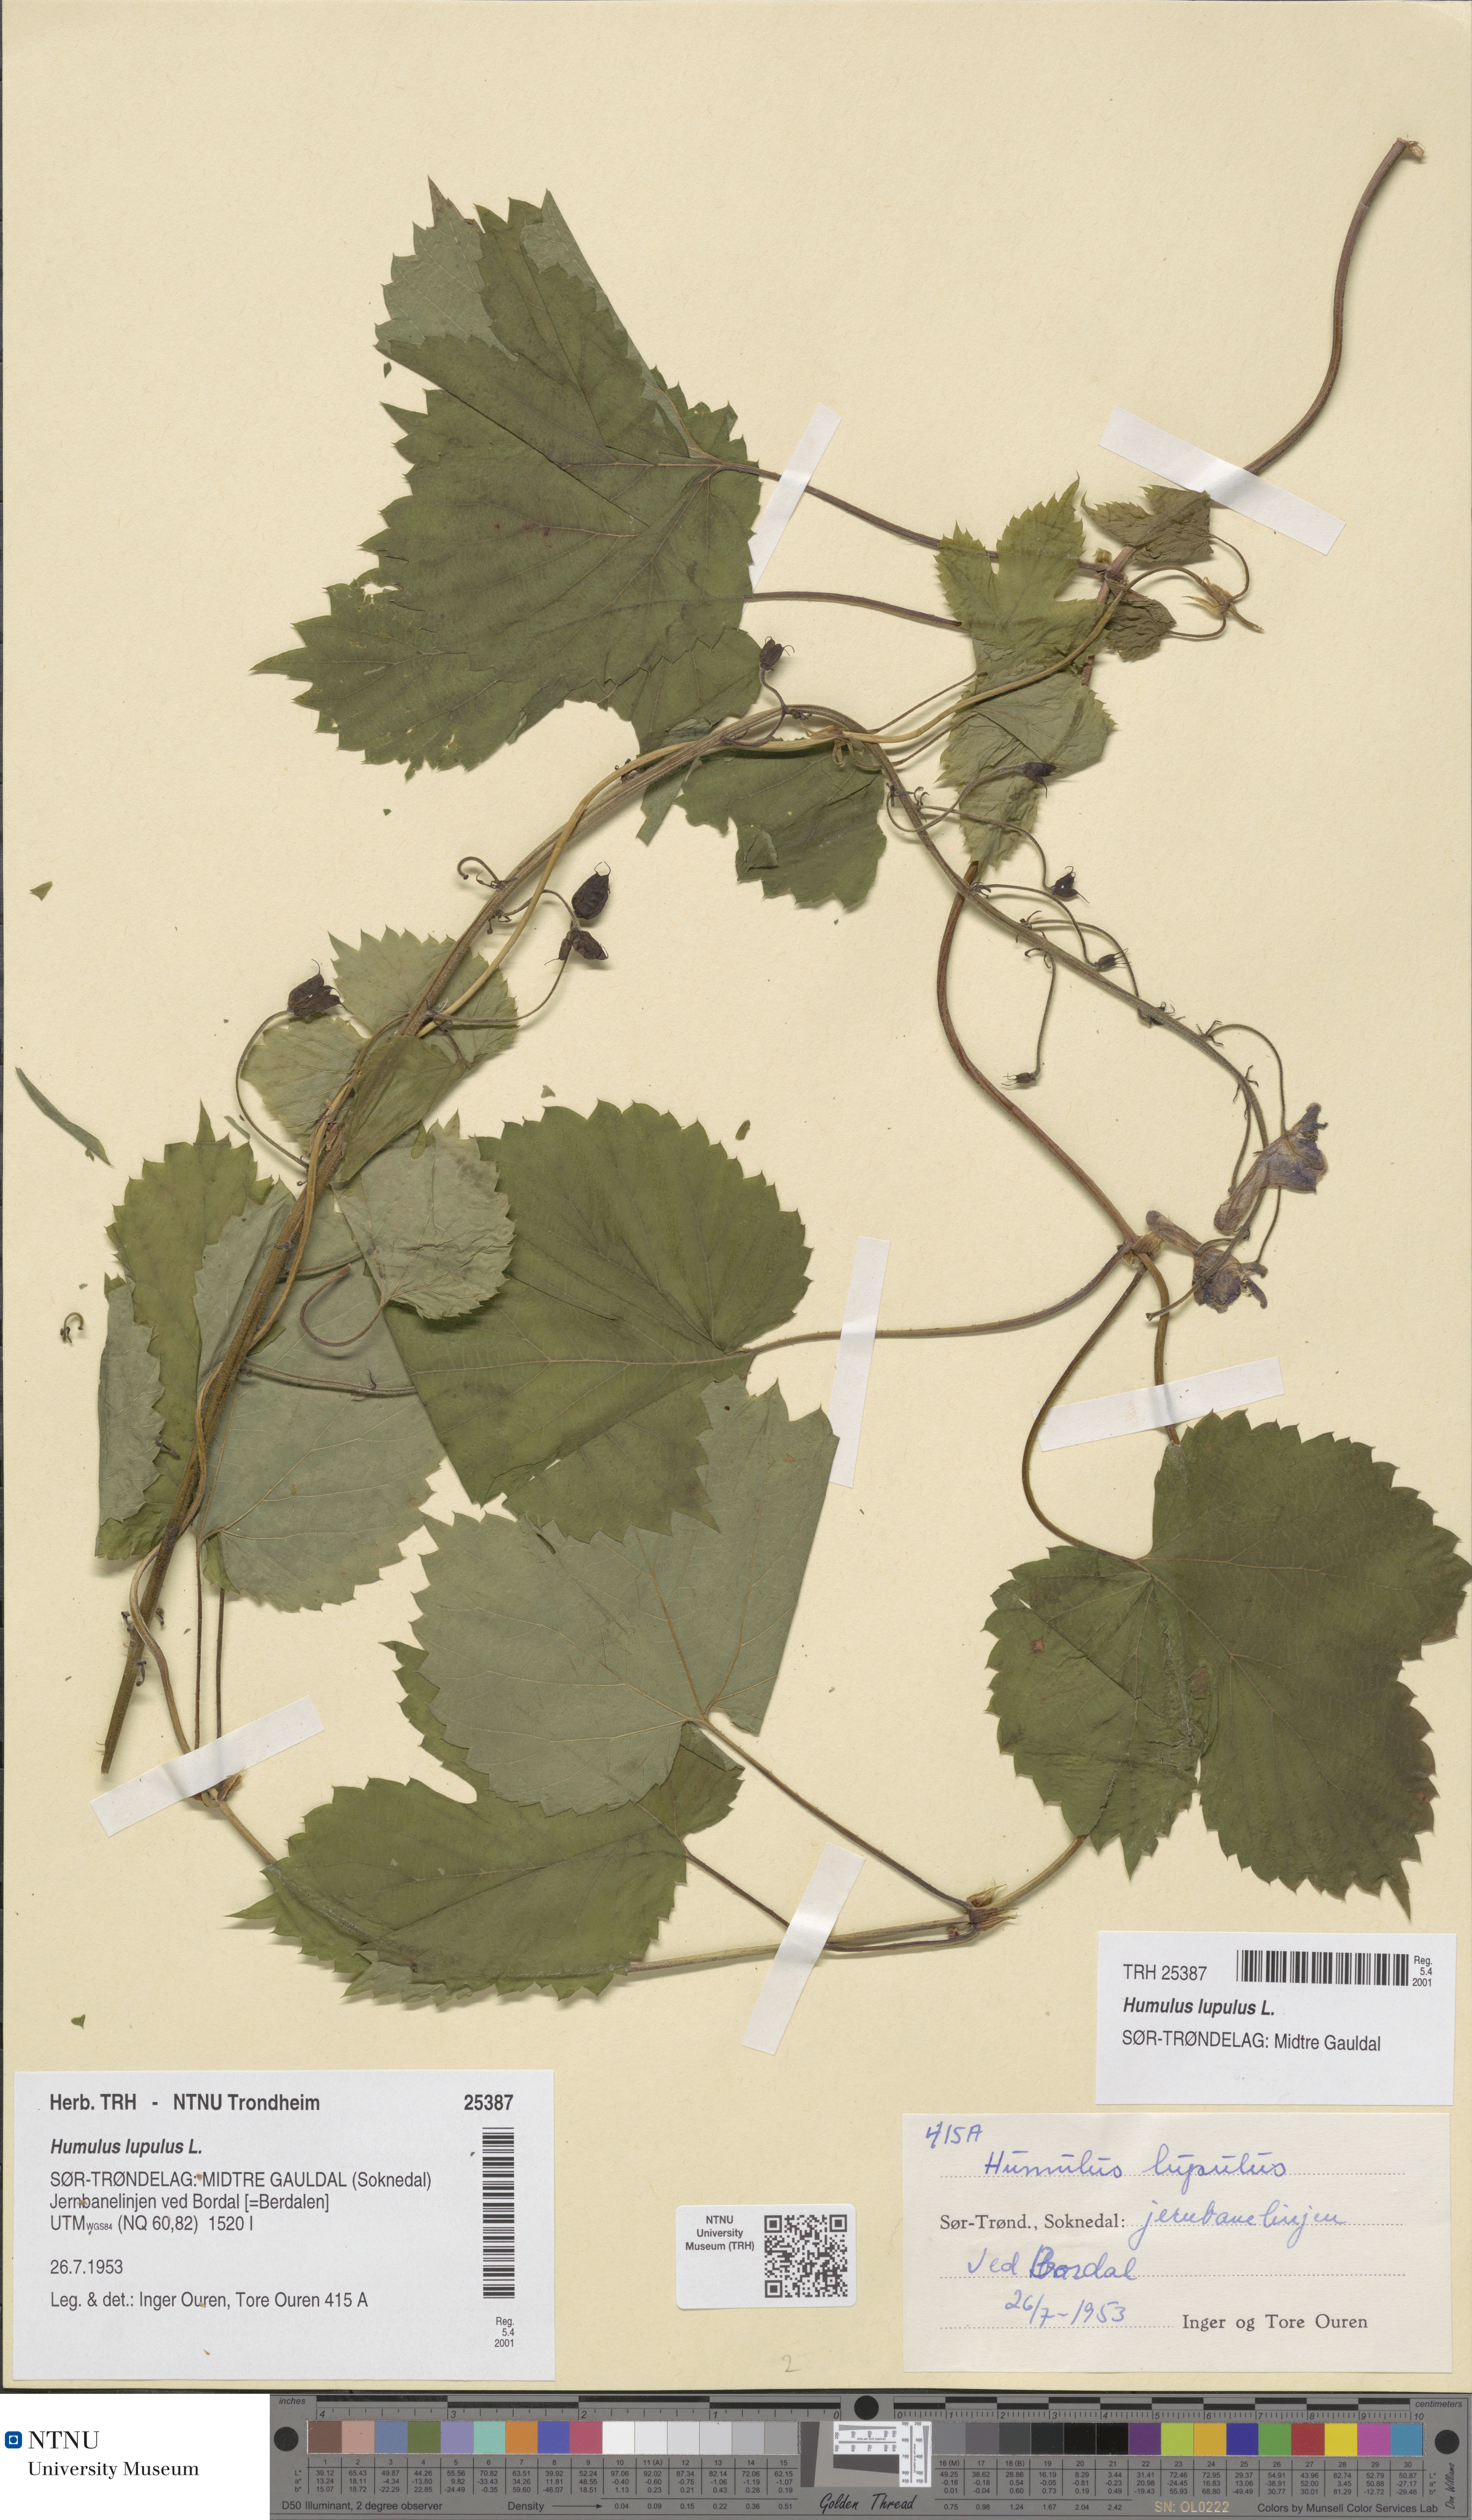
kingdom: Plantae
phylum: Tracheophyta
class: Magnoliopsida
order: Rosales
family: Cannabaceae
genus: Humulus
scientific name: Humulus lupulus
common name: Hop
